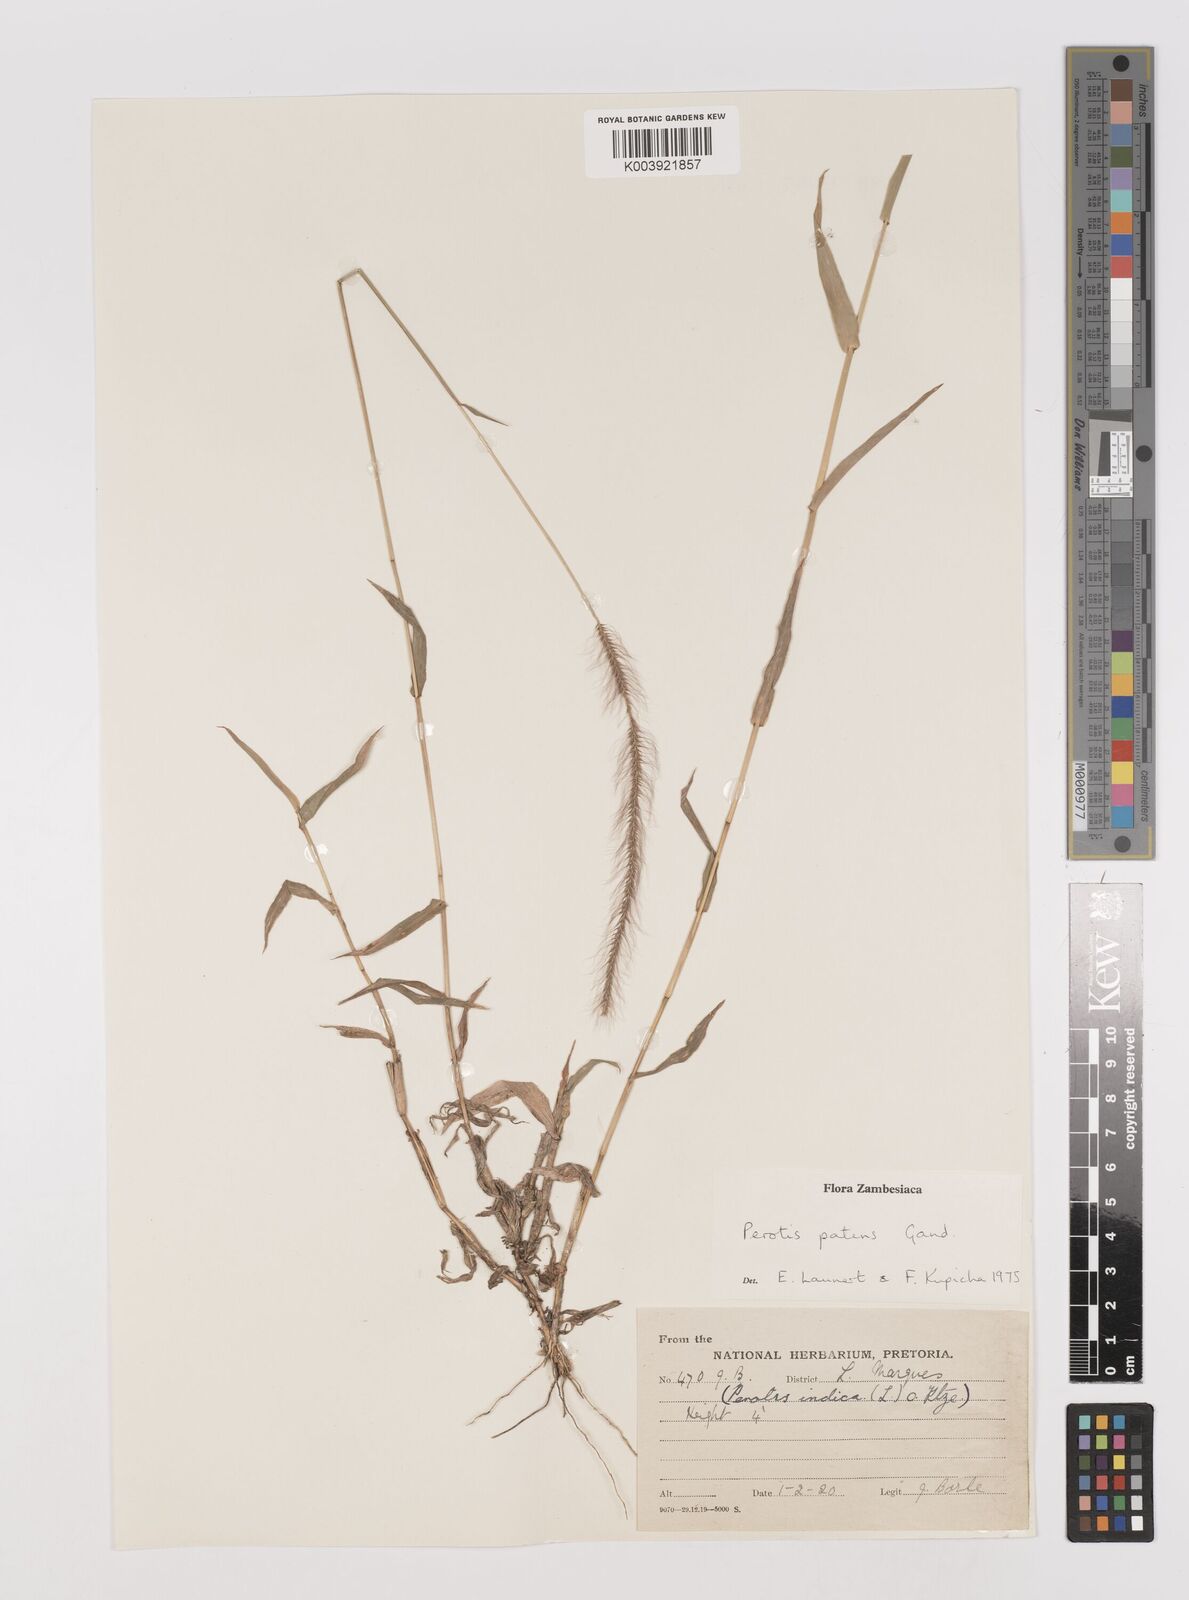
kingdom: Plantae
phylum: Tracheophyta
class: Liliopsida
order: Poales
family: Poaceae
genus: Perotis
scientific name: Perotis patens
